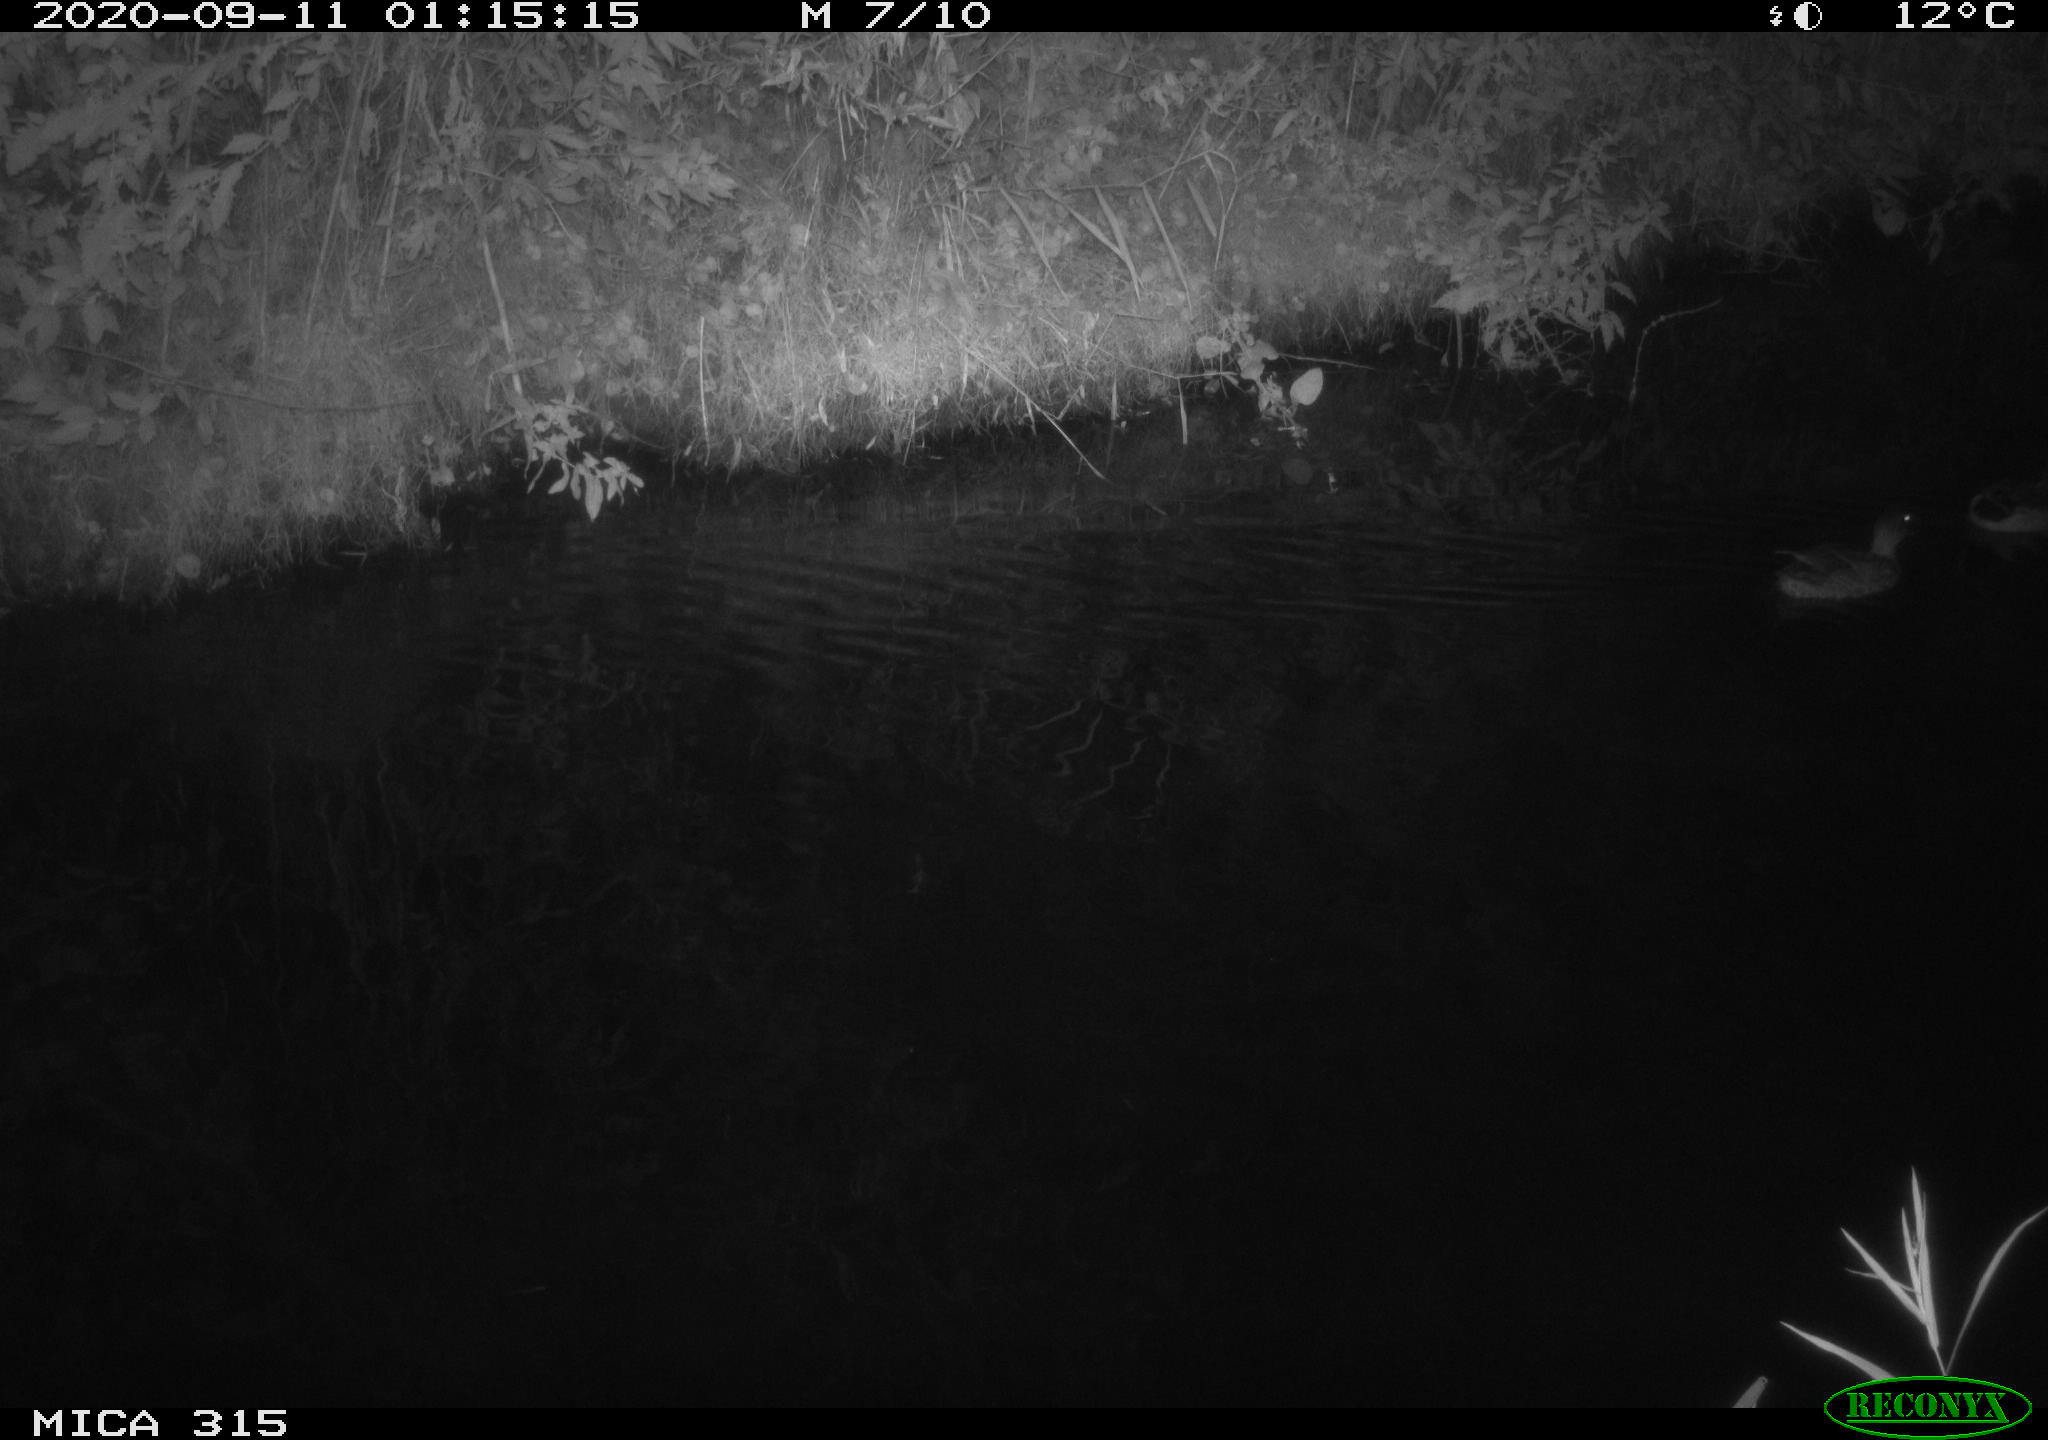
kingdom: Animalia
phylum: Chordata
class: Aves
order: Anseriformes
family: Anatidae
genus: Anas
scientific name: Anas platyrhynchos
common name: Mallard
